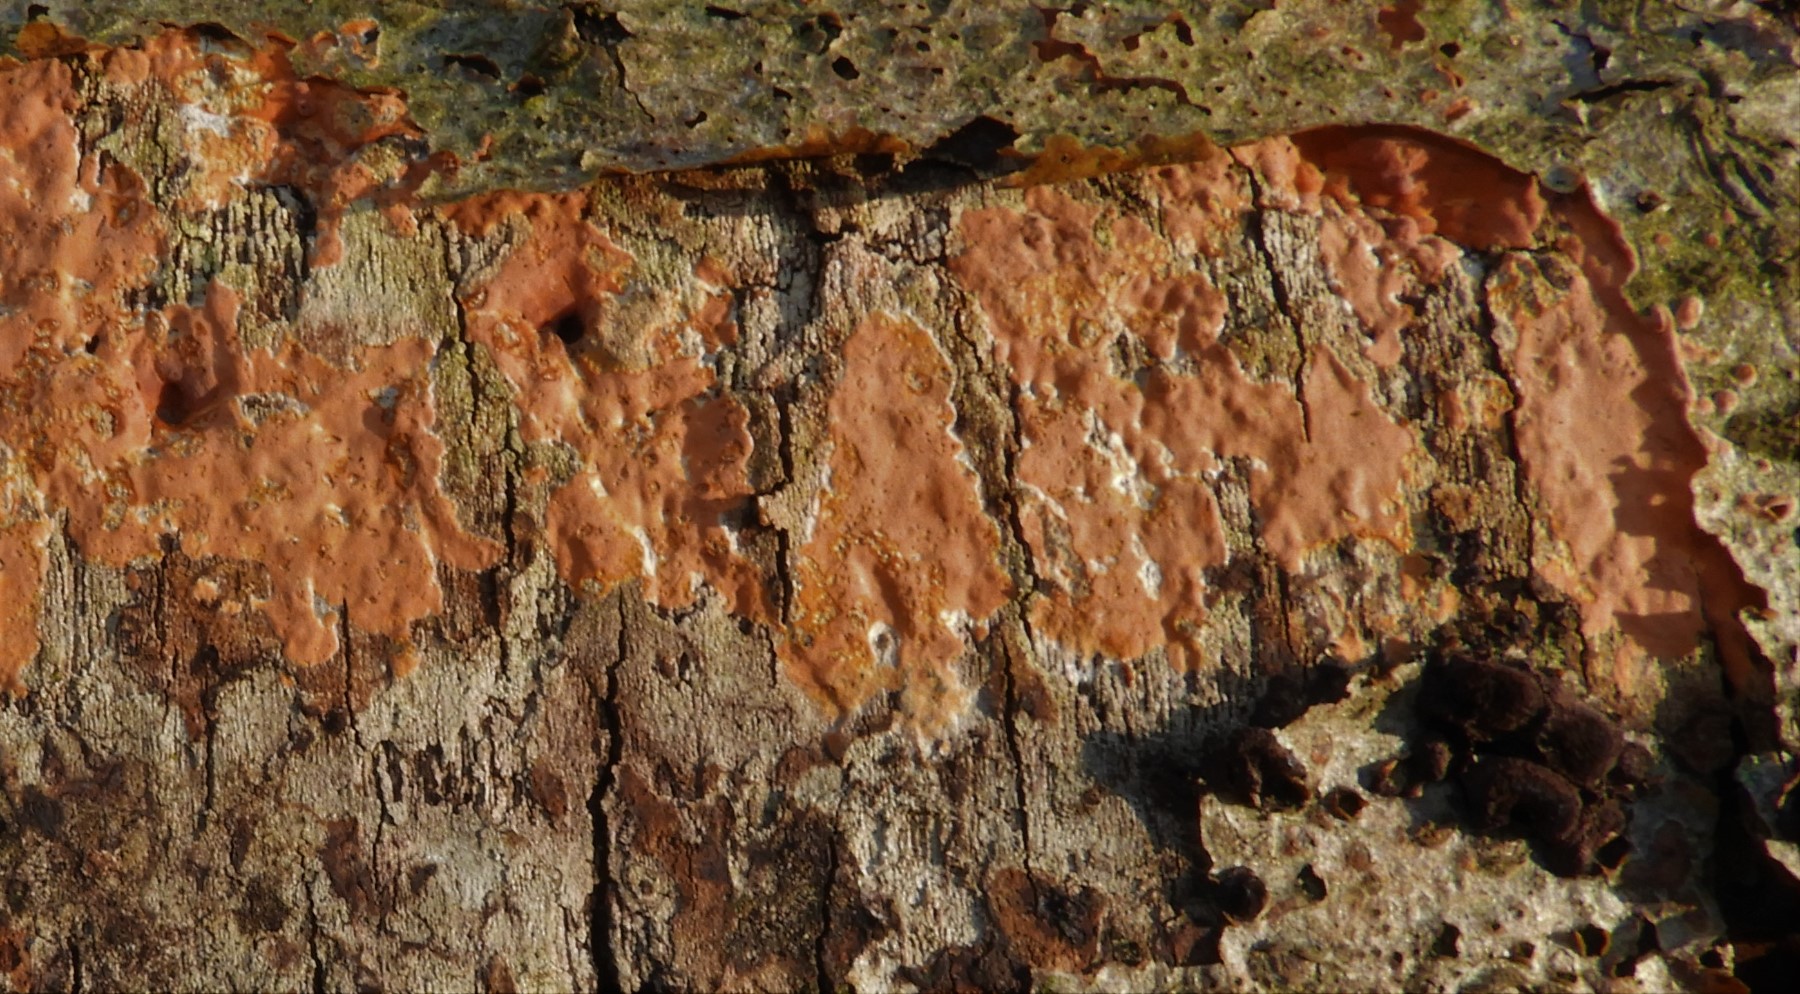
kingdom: Fungi
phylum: Basidiomycota
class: Agaricomycetes
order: Russulales
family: Peniophoraceae
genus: Peniophora
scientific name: Peniophora incarnata
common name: laksefarvet voksskind
